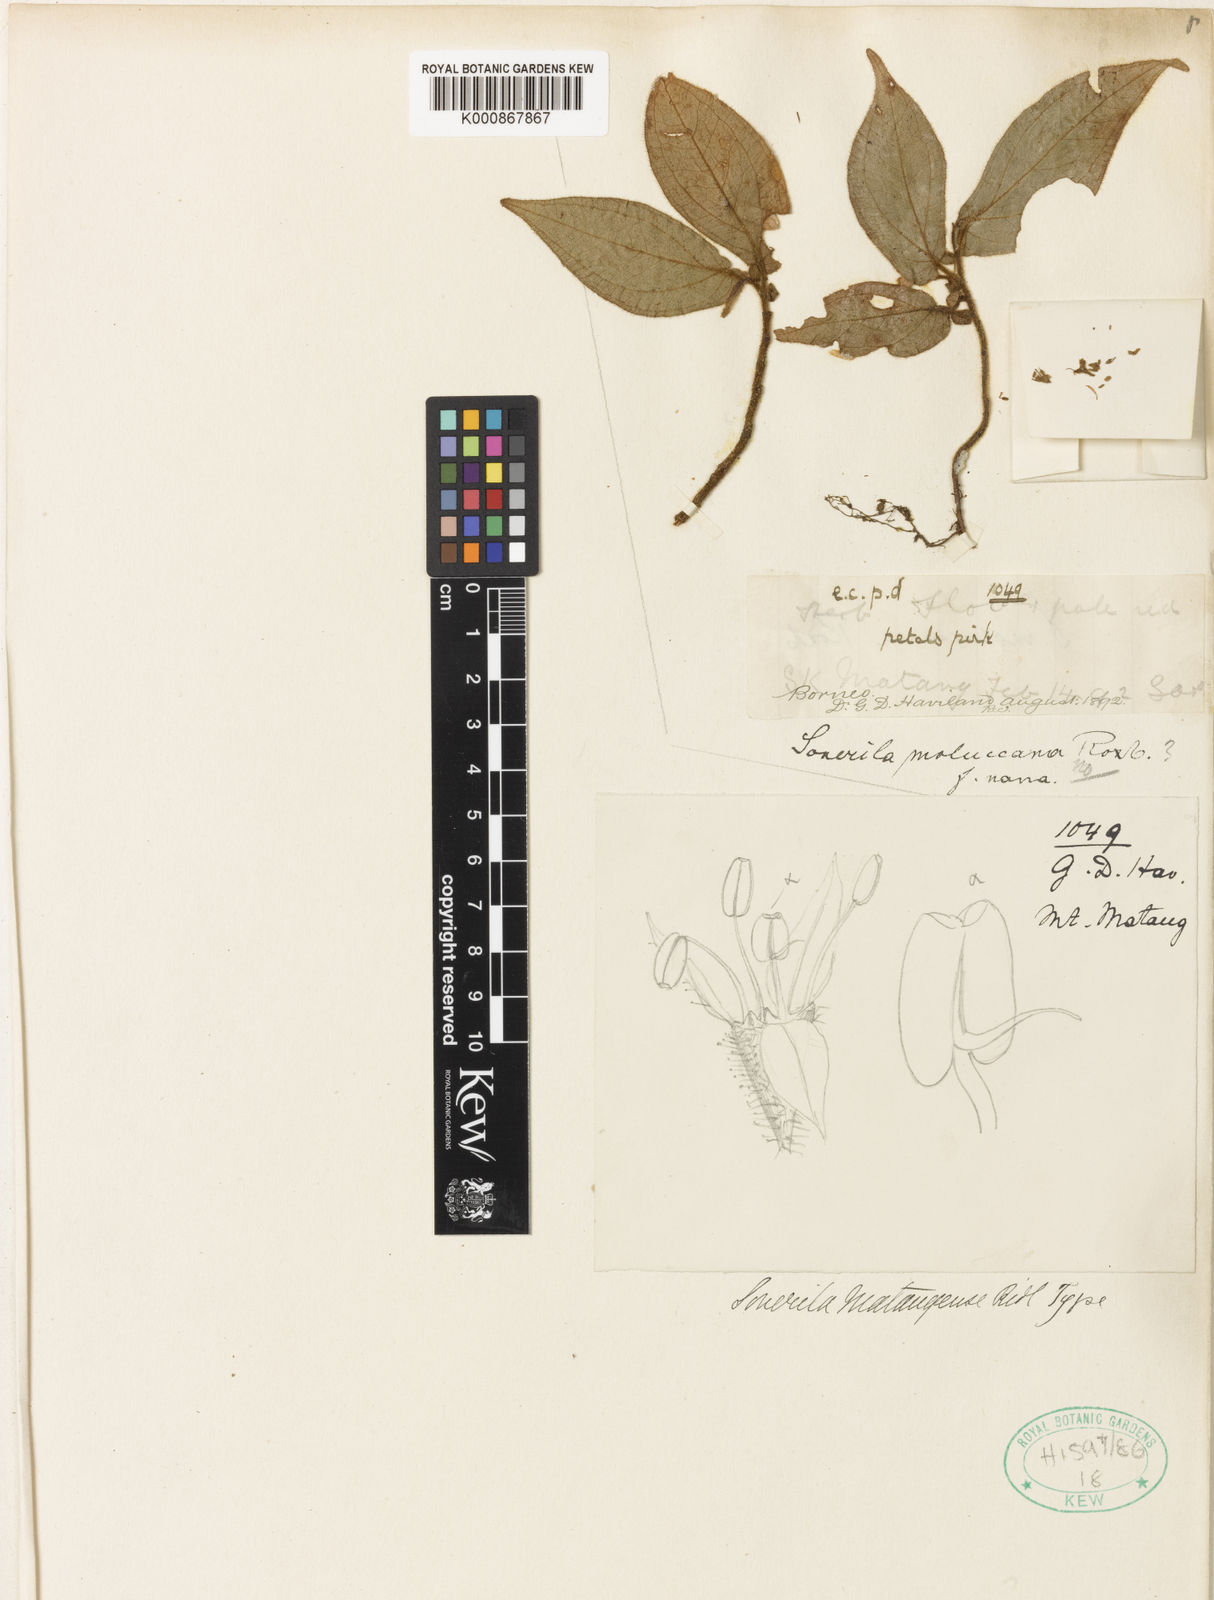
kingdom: Plantae
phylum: Tracheophyta
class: Magnoliopsida
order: Myrtales
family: Melastomataceae
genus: Sonerila
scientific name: Sonerila moluccana
